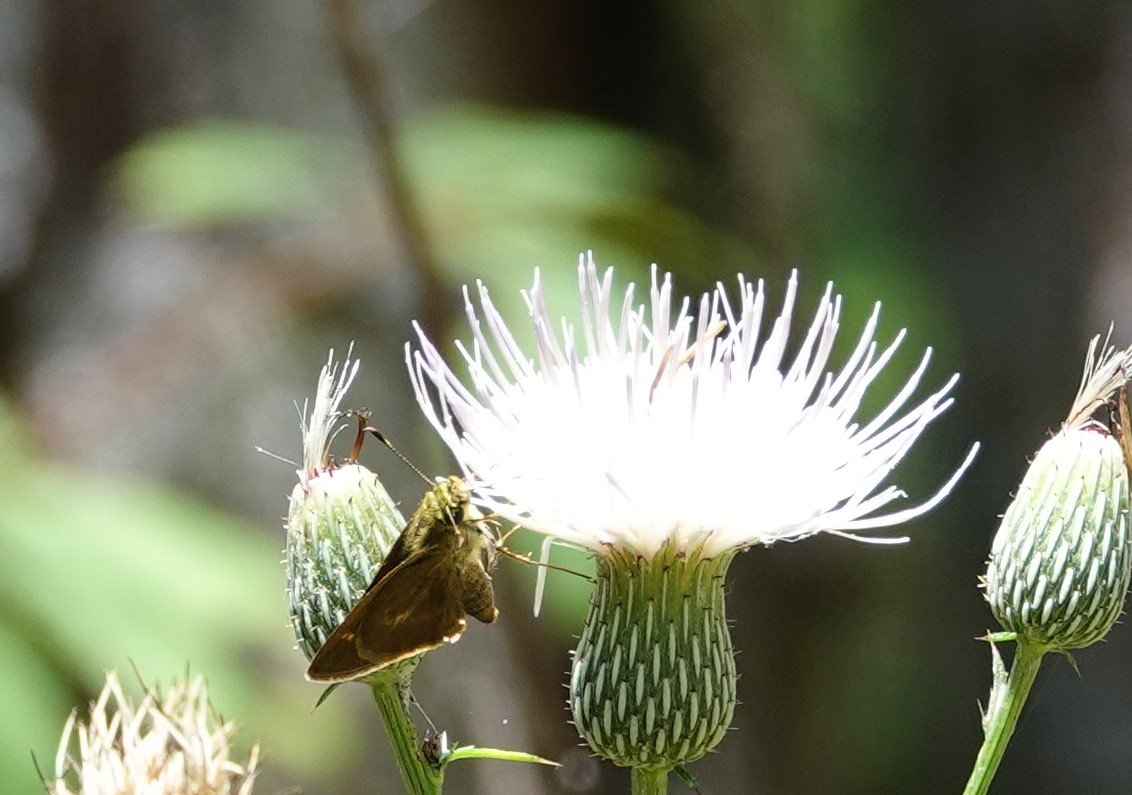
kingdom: Animalia
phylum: Arthropoda
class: Insecta
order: Lepidoptera
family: Hesperiidae
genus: Vernia
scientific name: Vernia verna
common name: Little Glassywing
